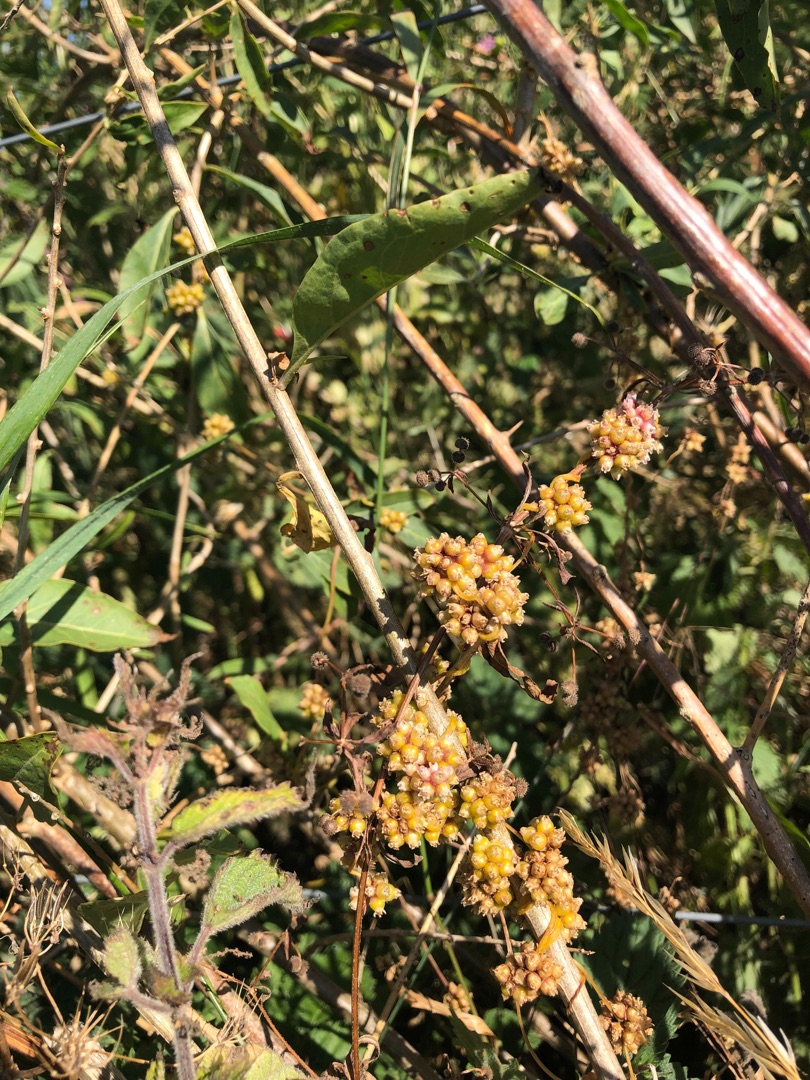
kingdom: Plantae
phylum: Tracheophyta
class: Magnoliopsida
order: Solanales
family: Convolvulaceae
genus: Cuscuta
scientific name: Cuscuta europaea
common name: Nælde-silke
